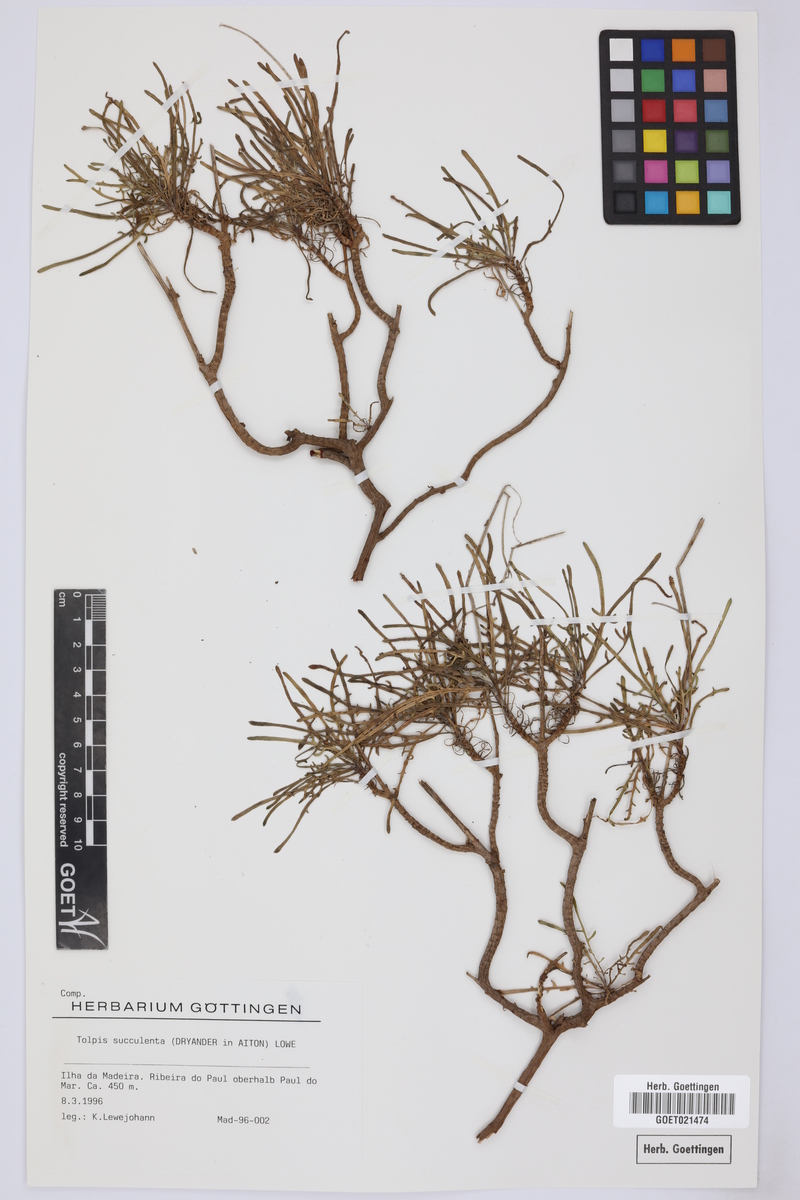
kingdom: Plantae
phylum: Tracheophyta
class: Magnoliopsida
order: Asterales
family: Asteraceae
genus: Tolpis
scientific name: Tolpis succulenta
